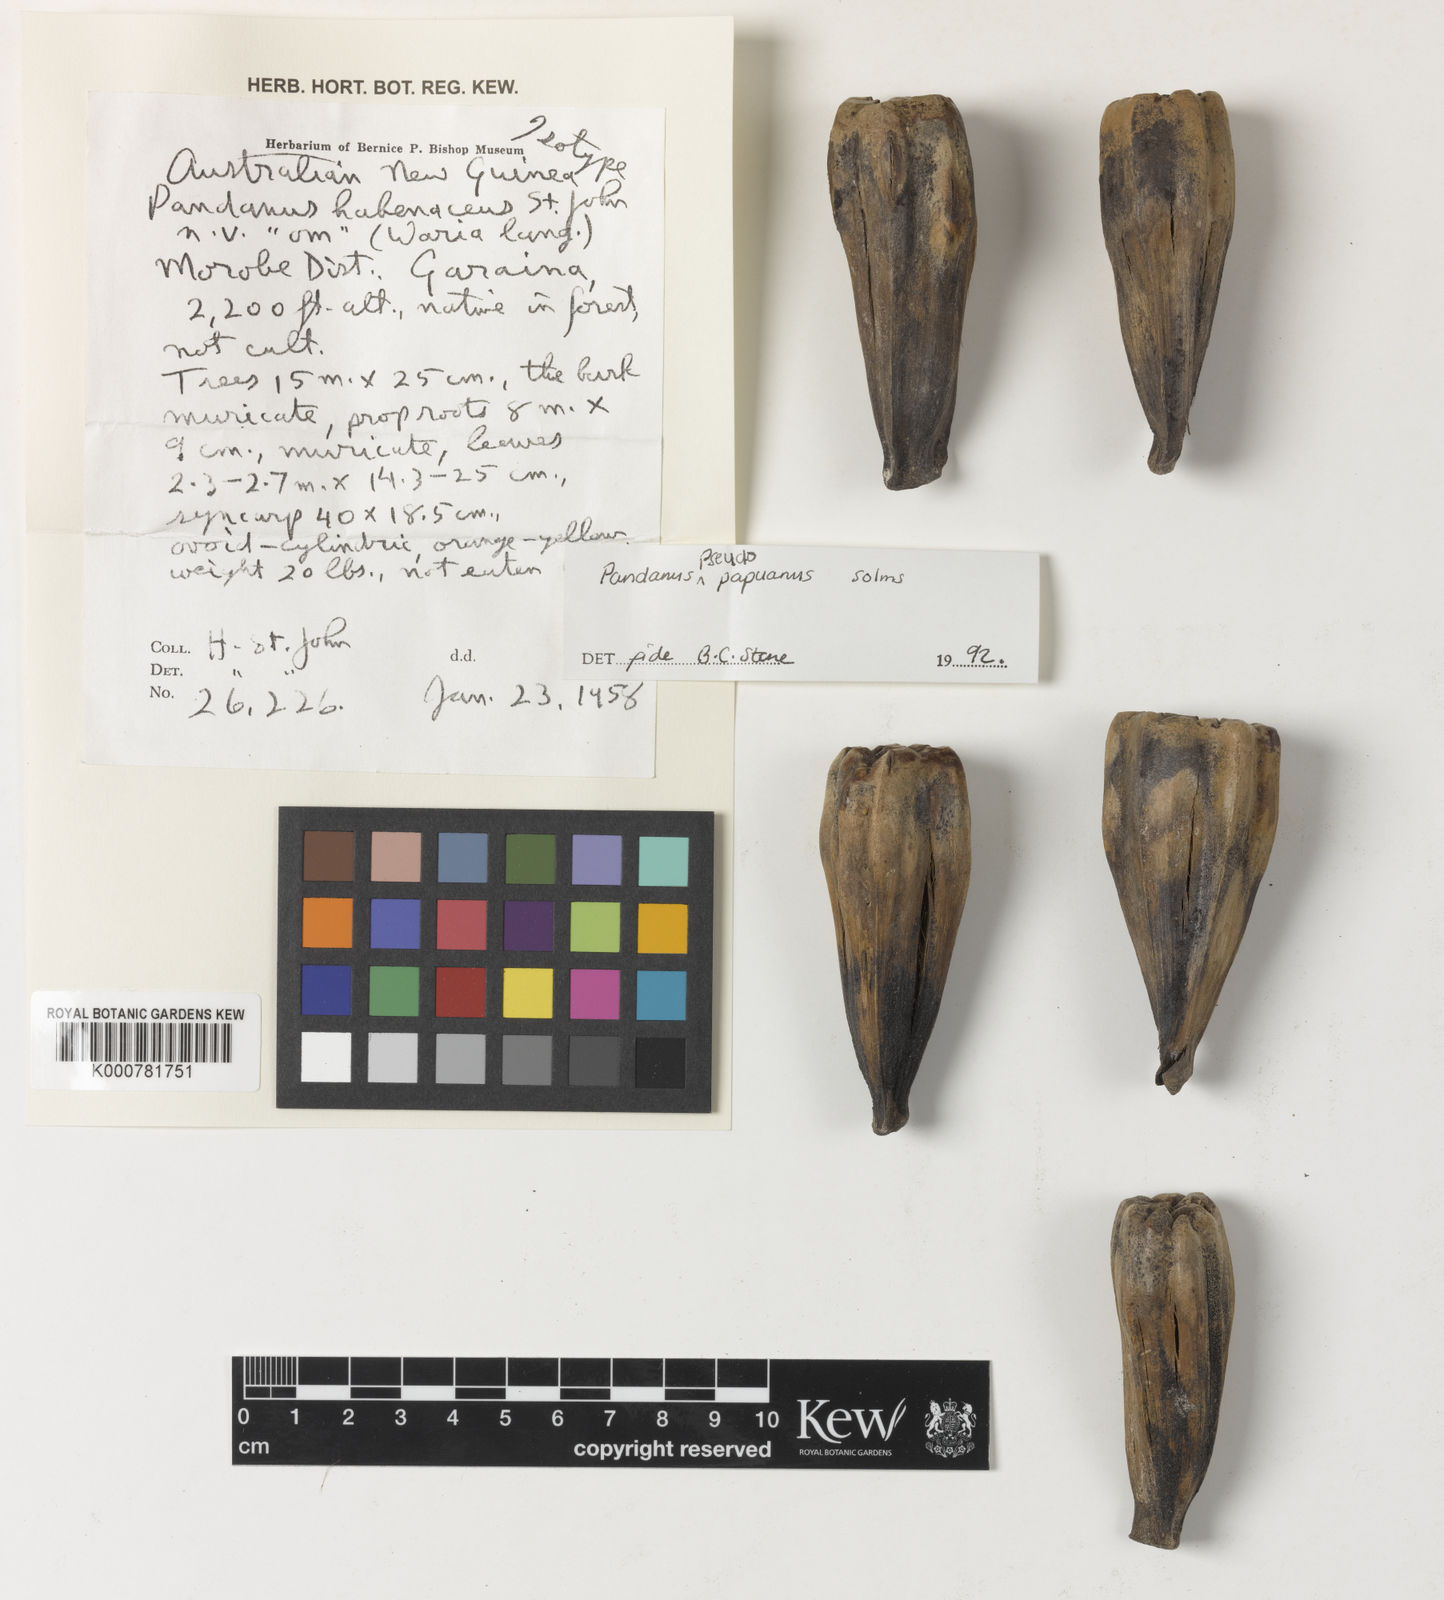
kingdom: Plantae
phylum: Tracheophyta
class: Liliopsida
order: Pandanales
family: Pandanaceae
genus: Pandanus
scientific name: Pandanus papuanus
